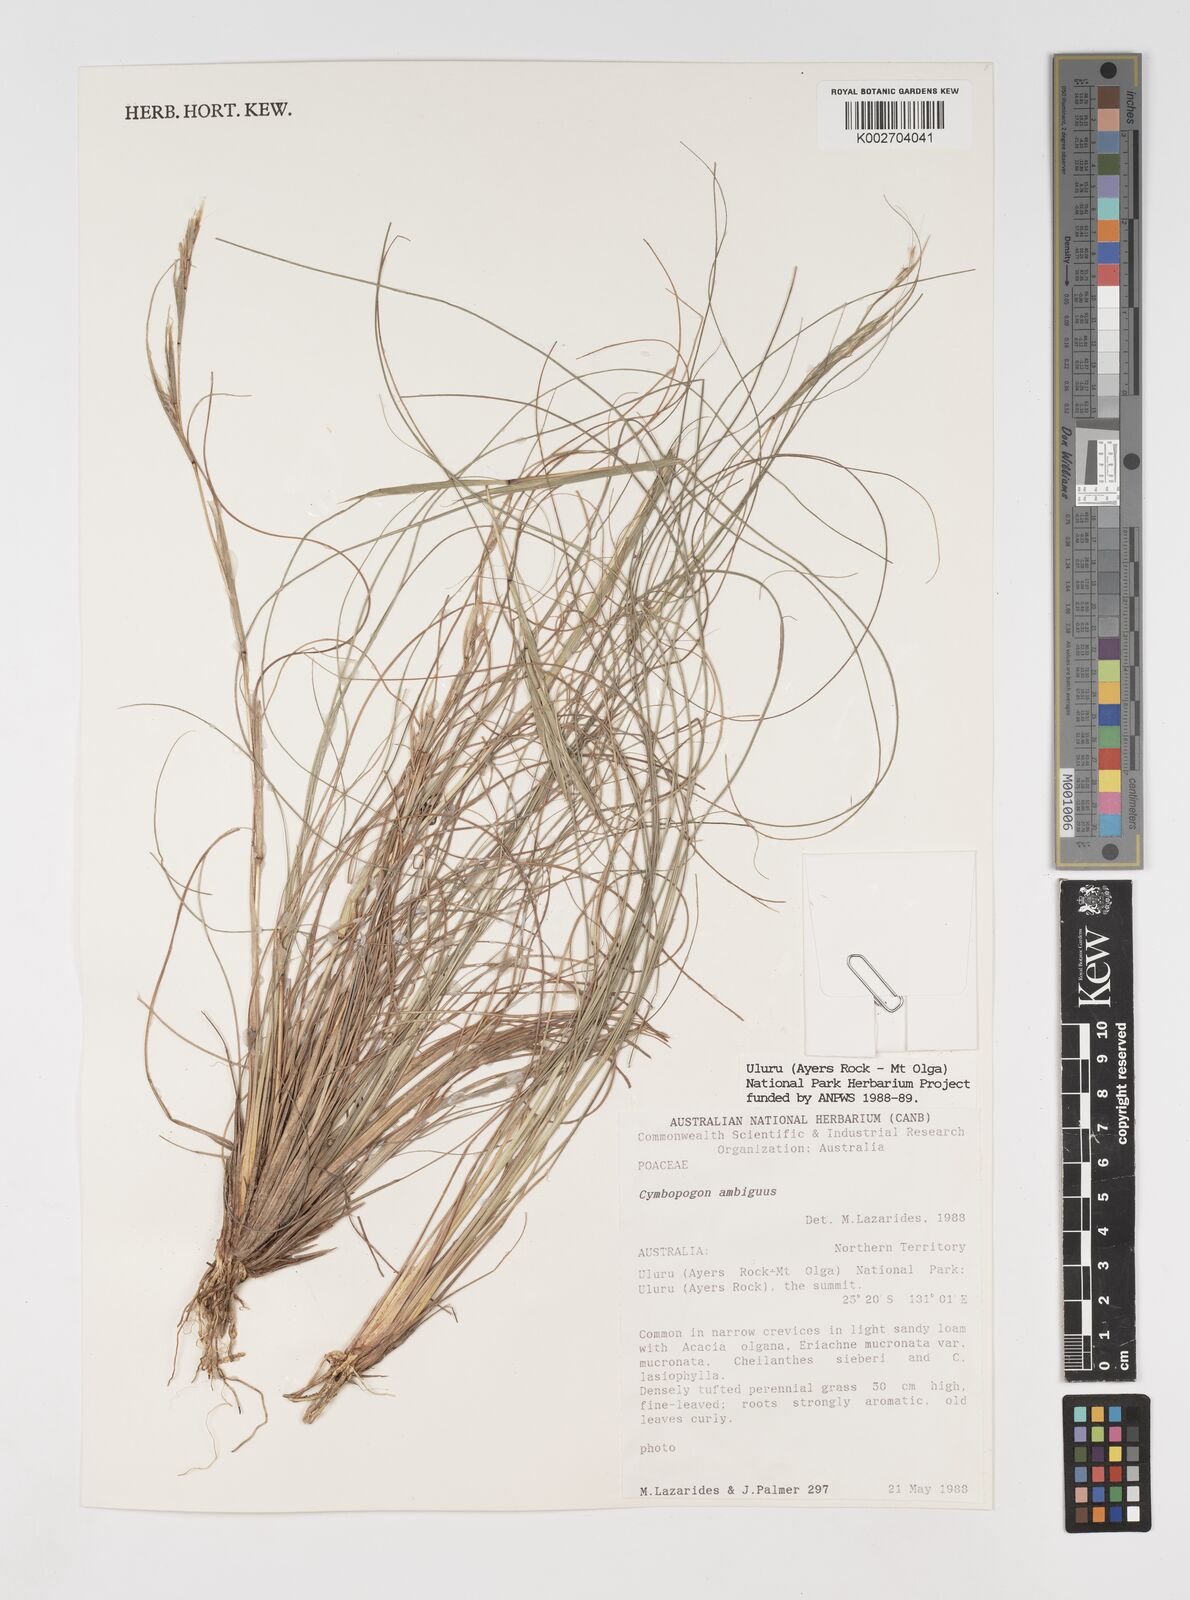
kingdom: Plantae
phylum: Tracheophyta
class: Liliopsida
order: Poales
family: Poaceae
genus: Cymbopogon
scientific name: Cymbopogon ambiguus
